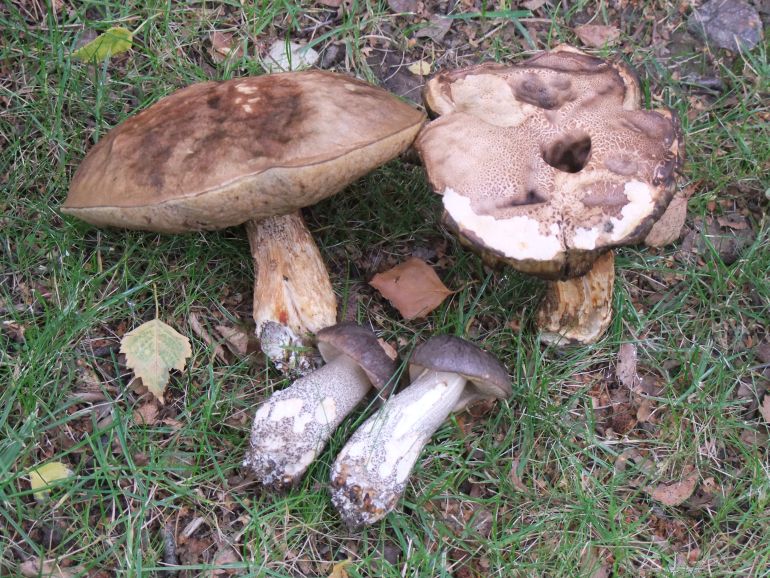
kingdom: Fungi
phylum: Basidiomycota
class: Agaricomycetes
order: Boletales
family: Boletaceae
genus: Leccinum
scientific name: Leccinum scabrum
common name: brun skælrørhat
